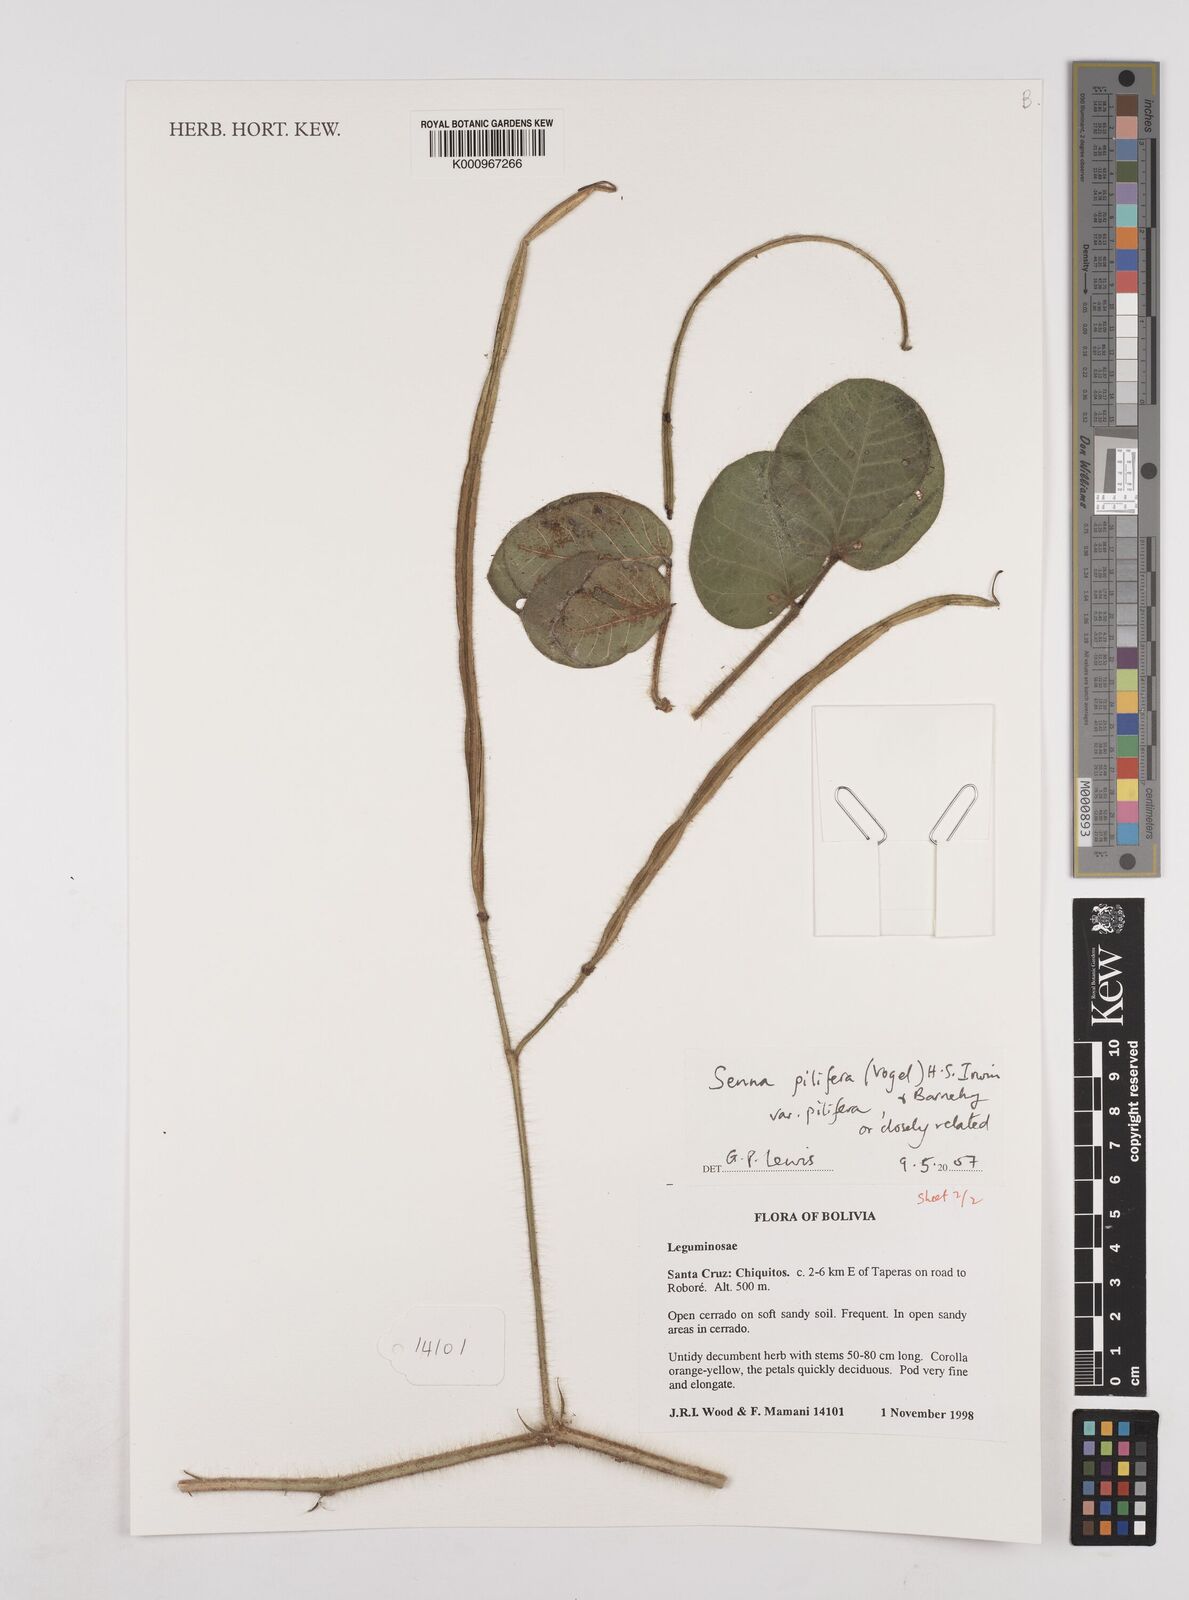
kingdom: Plantae
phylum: Tracheophyta
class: Magnoliopsida
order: Fabales
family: Fabaceae
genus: Senna
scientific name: Senna pilifera
